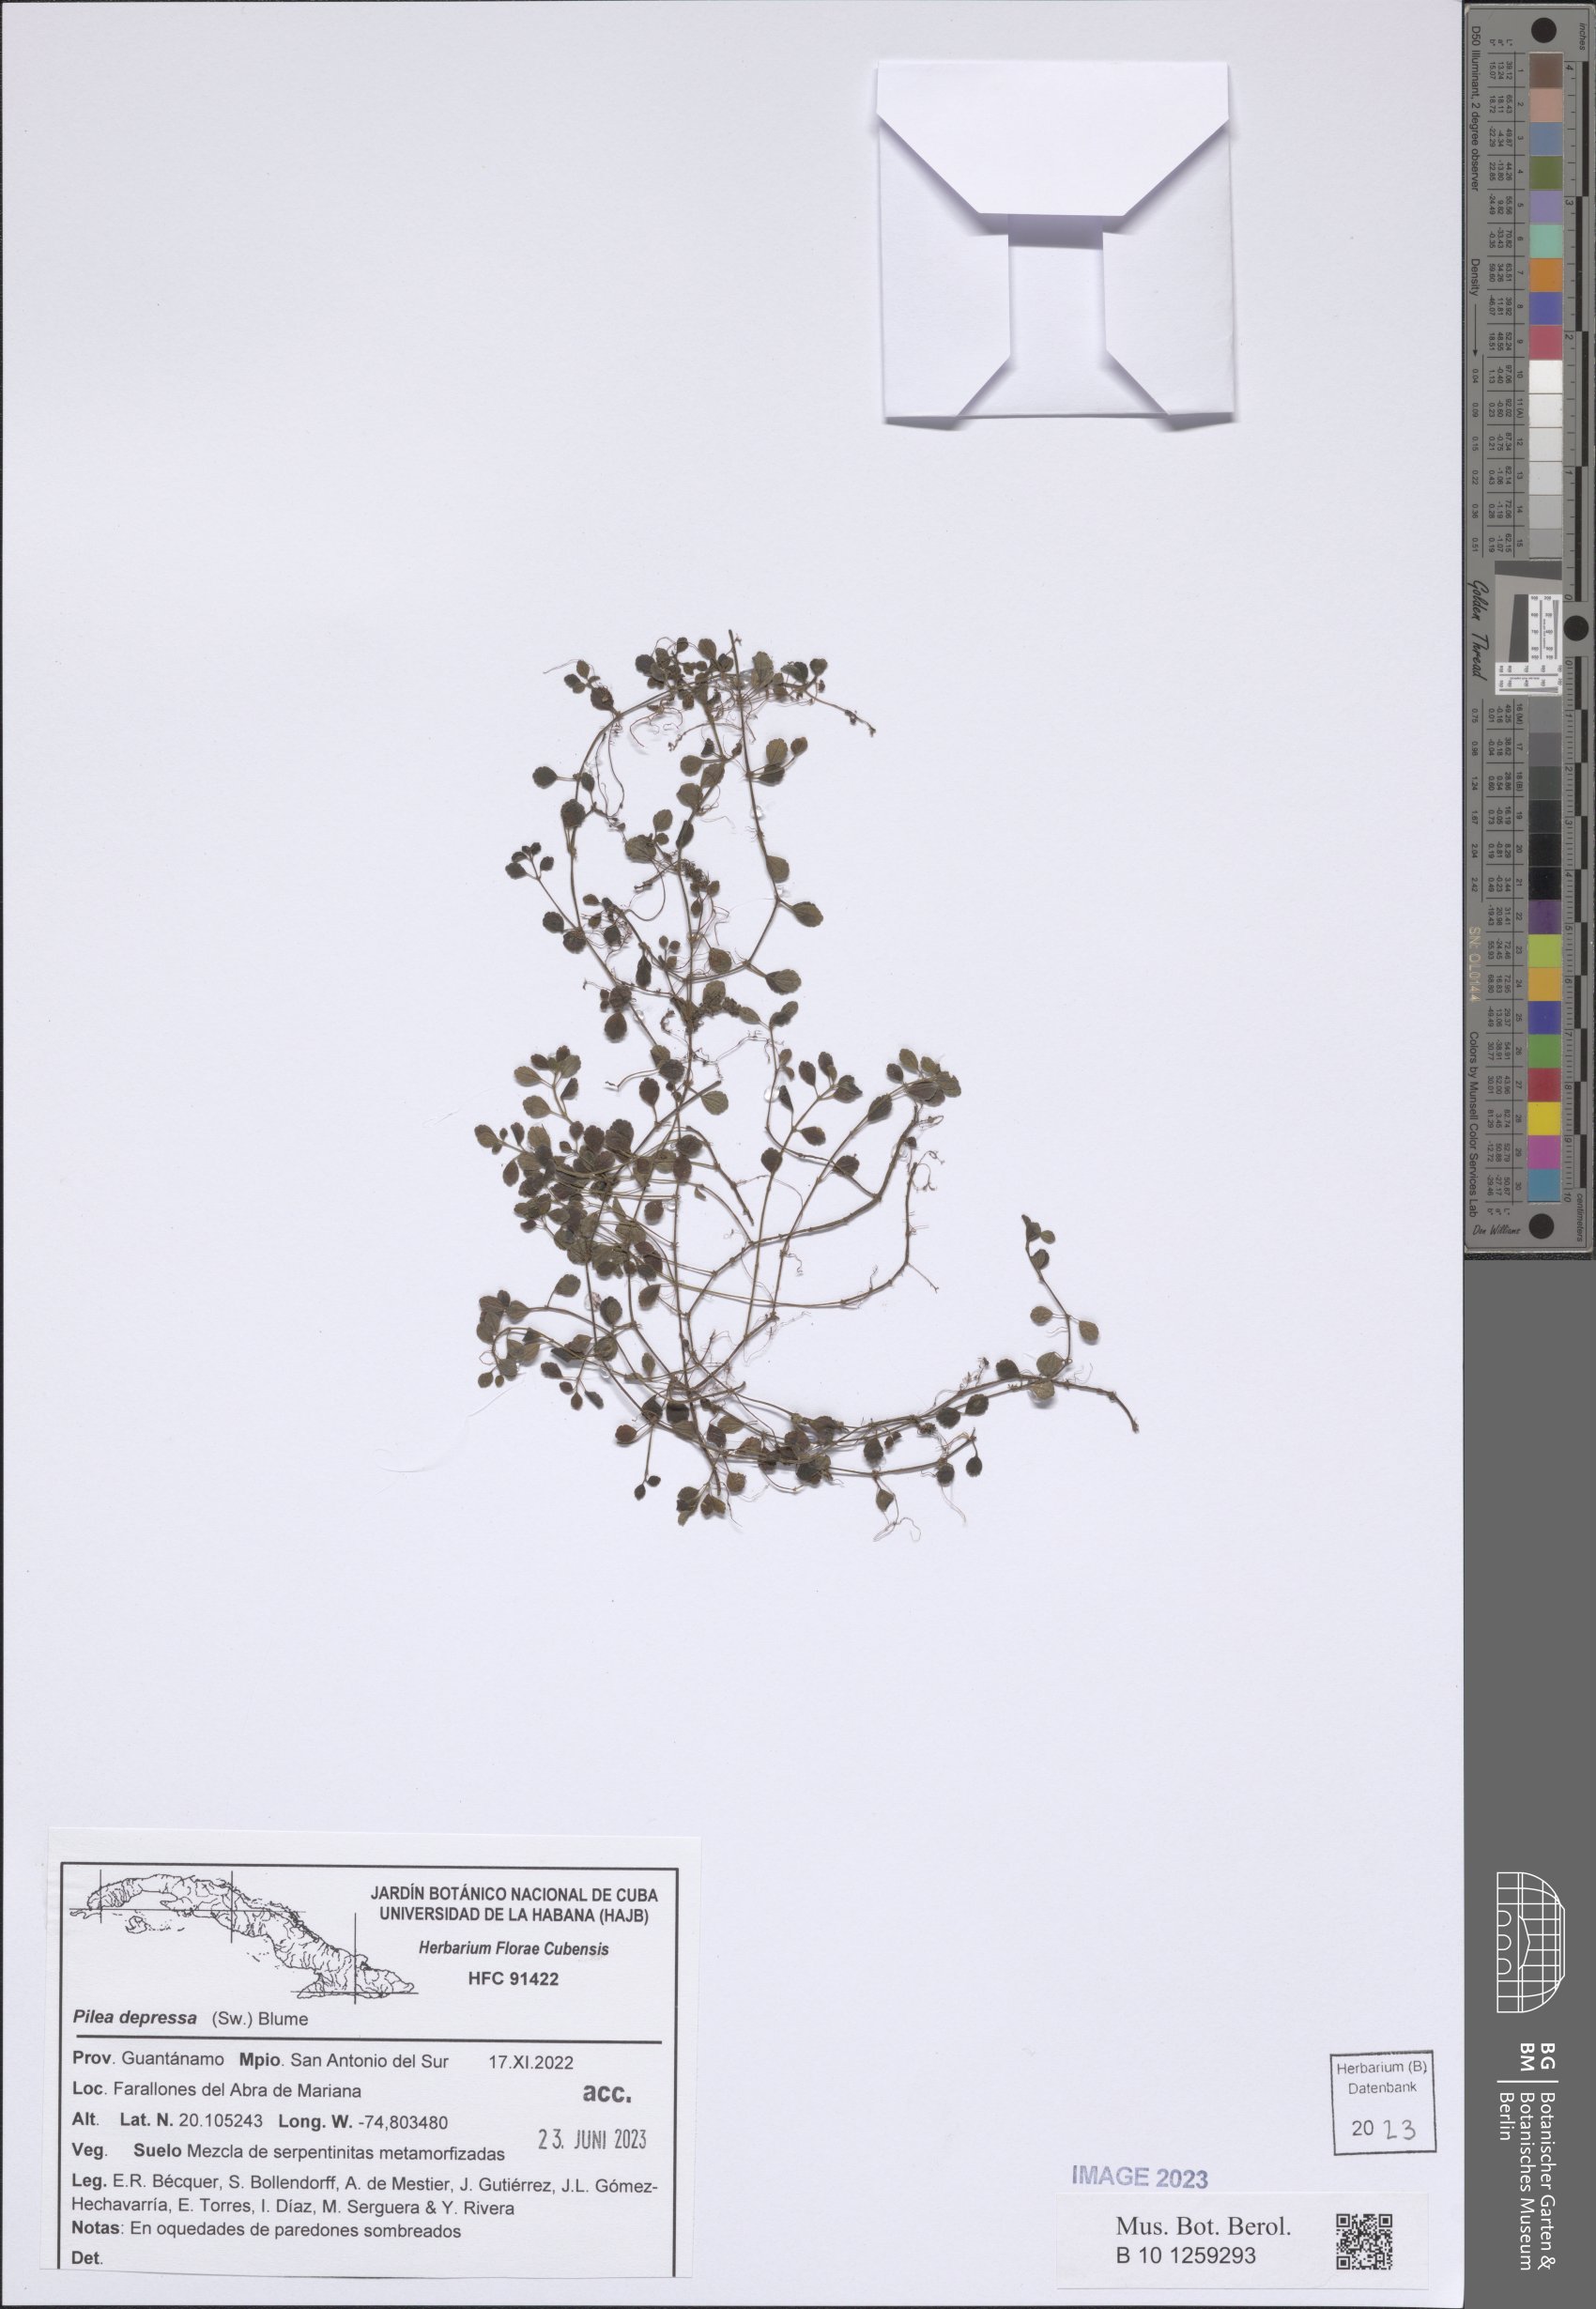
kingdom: Plantae
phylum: Tracheophyta
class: Magnoliopsida
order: Rosales
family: Urticaceae
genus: Pilea
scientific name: Pilea depressa
